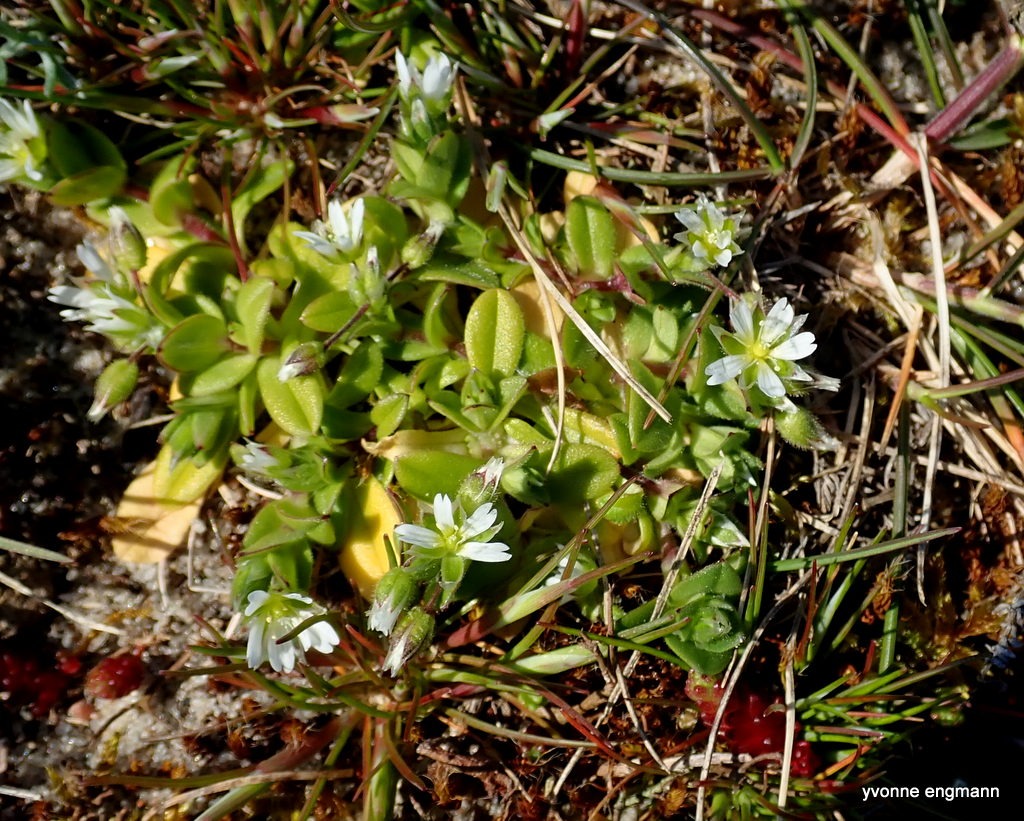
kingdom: Plantae
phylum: Tracheophyta
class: Magnoliopsida
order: Caryophyllales
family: Caryophyllaceae
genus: Cerastium
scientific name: Cerastium semidecandrum
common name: Femhannet hønsetarm
